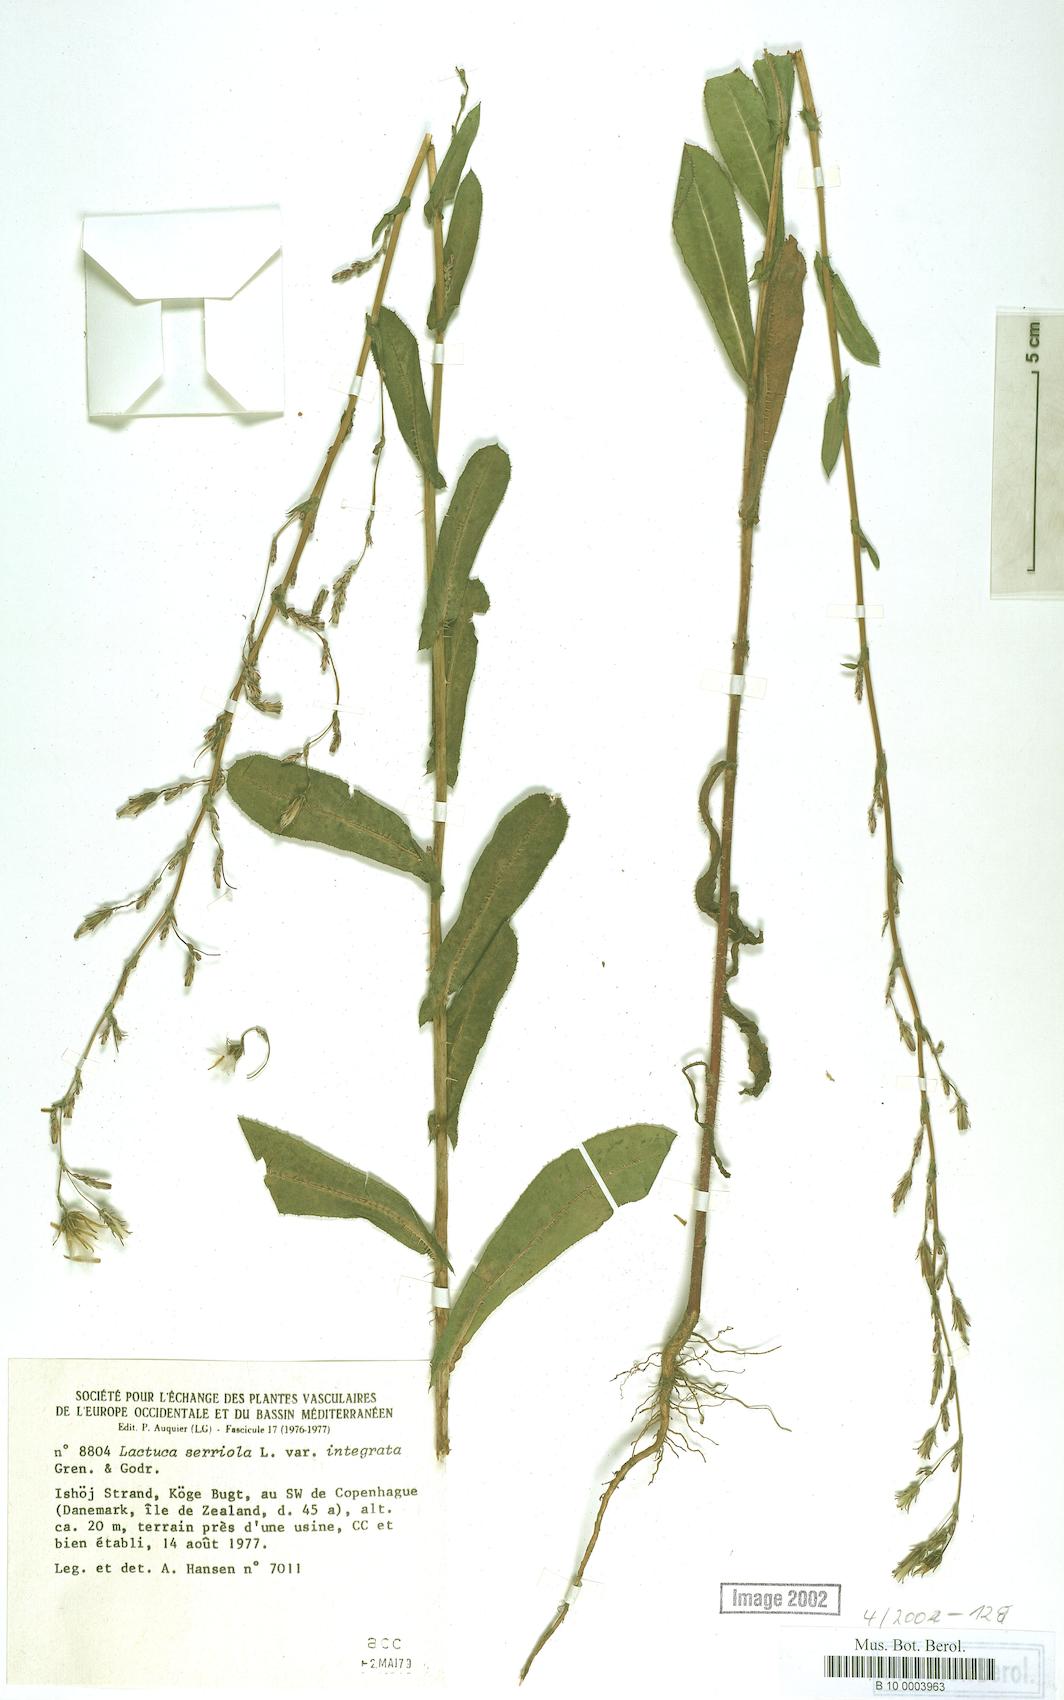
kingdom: Plantae
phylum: Tracheophyta
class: Magnoliopsida
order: Asterales
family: Asteraceae
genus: Lactuca
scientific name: Lactuca serriola
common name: Prickly lettuce
